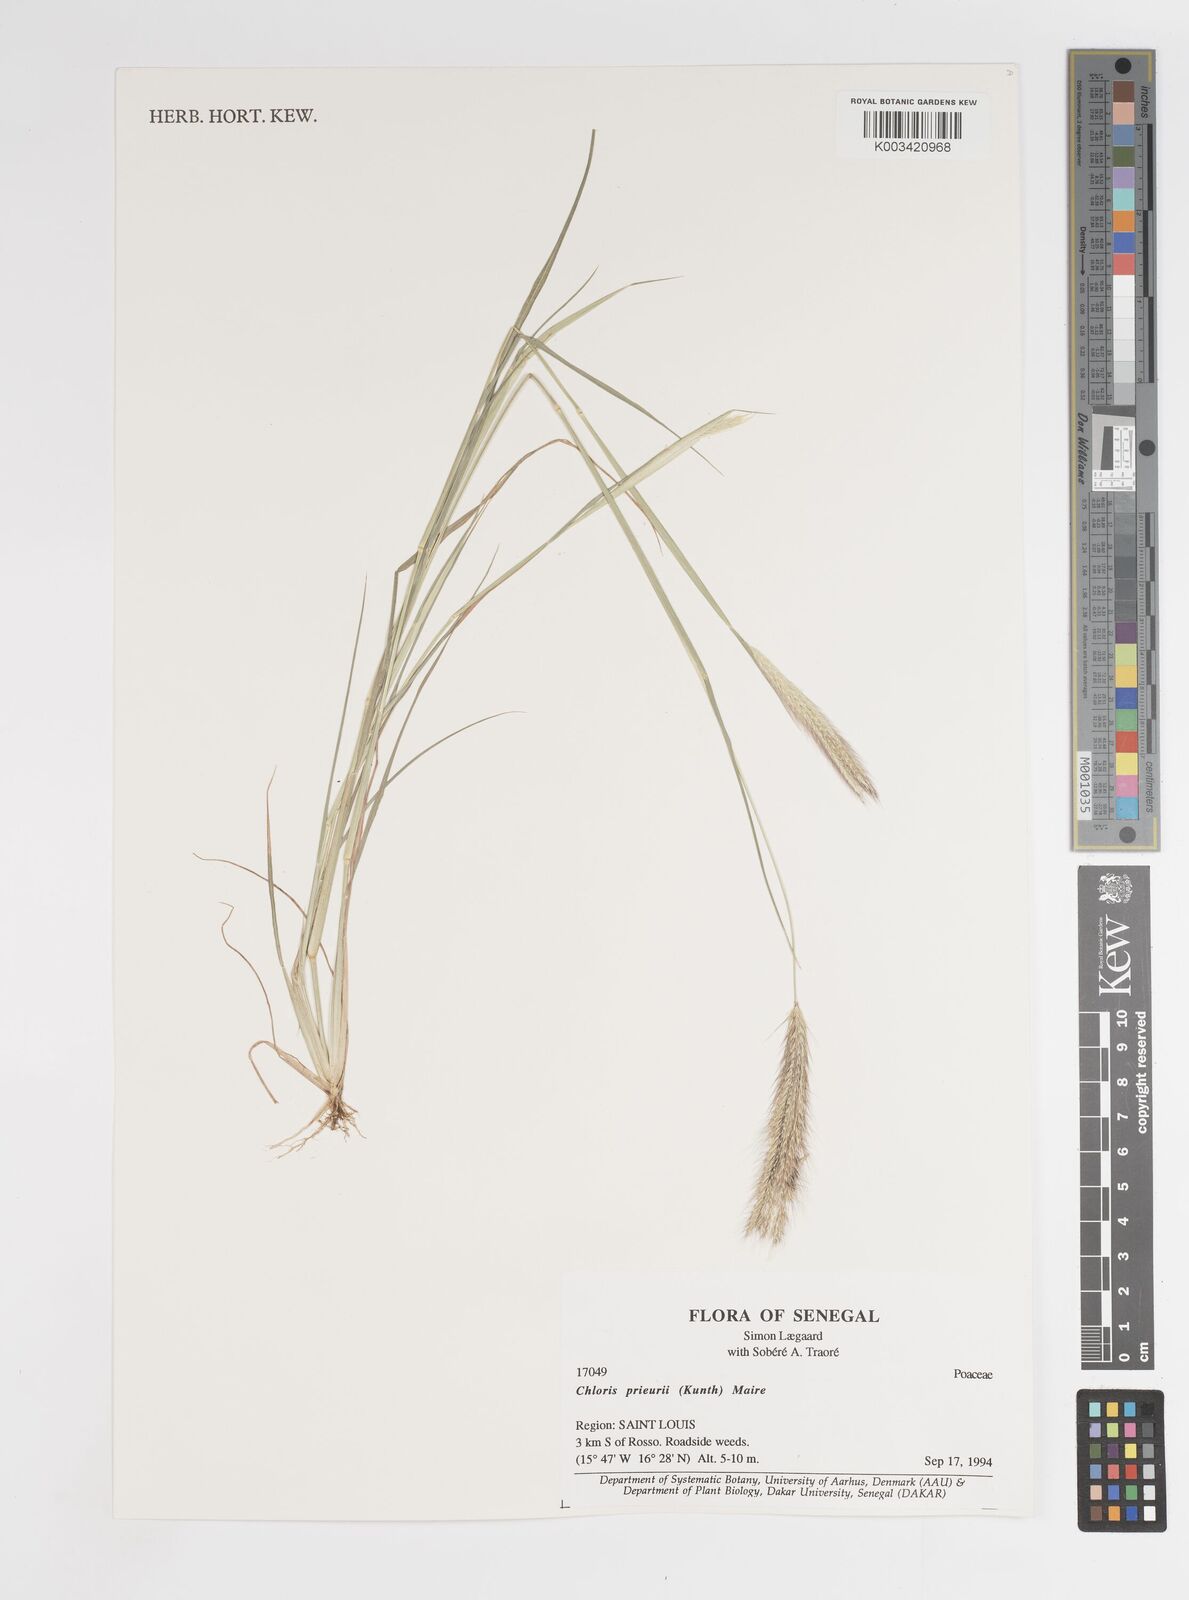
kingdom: Plantae
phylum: Tracheophyta
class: Liliopsida
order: Poales
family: Poaceae
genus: Enteropogon
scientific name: Enteropogon prieurii
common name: Prieur's umbrellagrass
